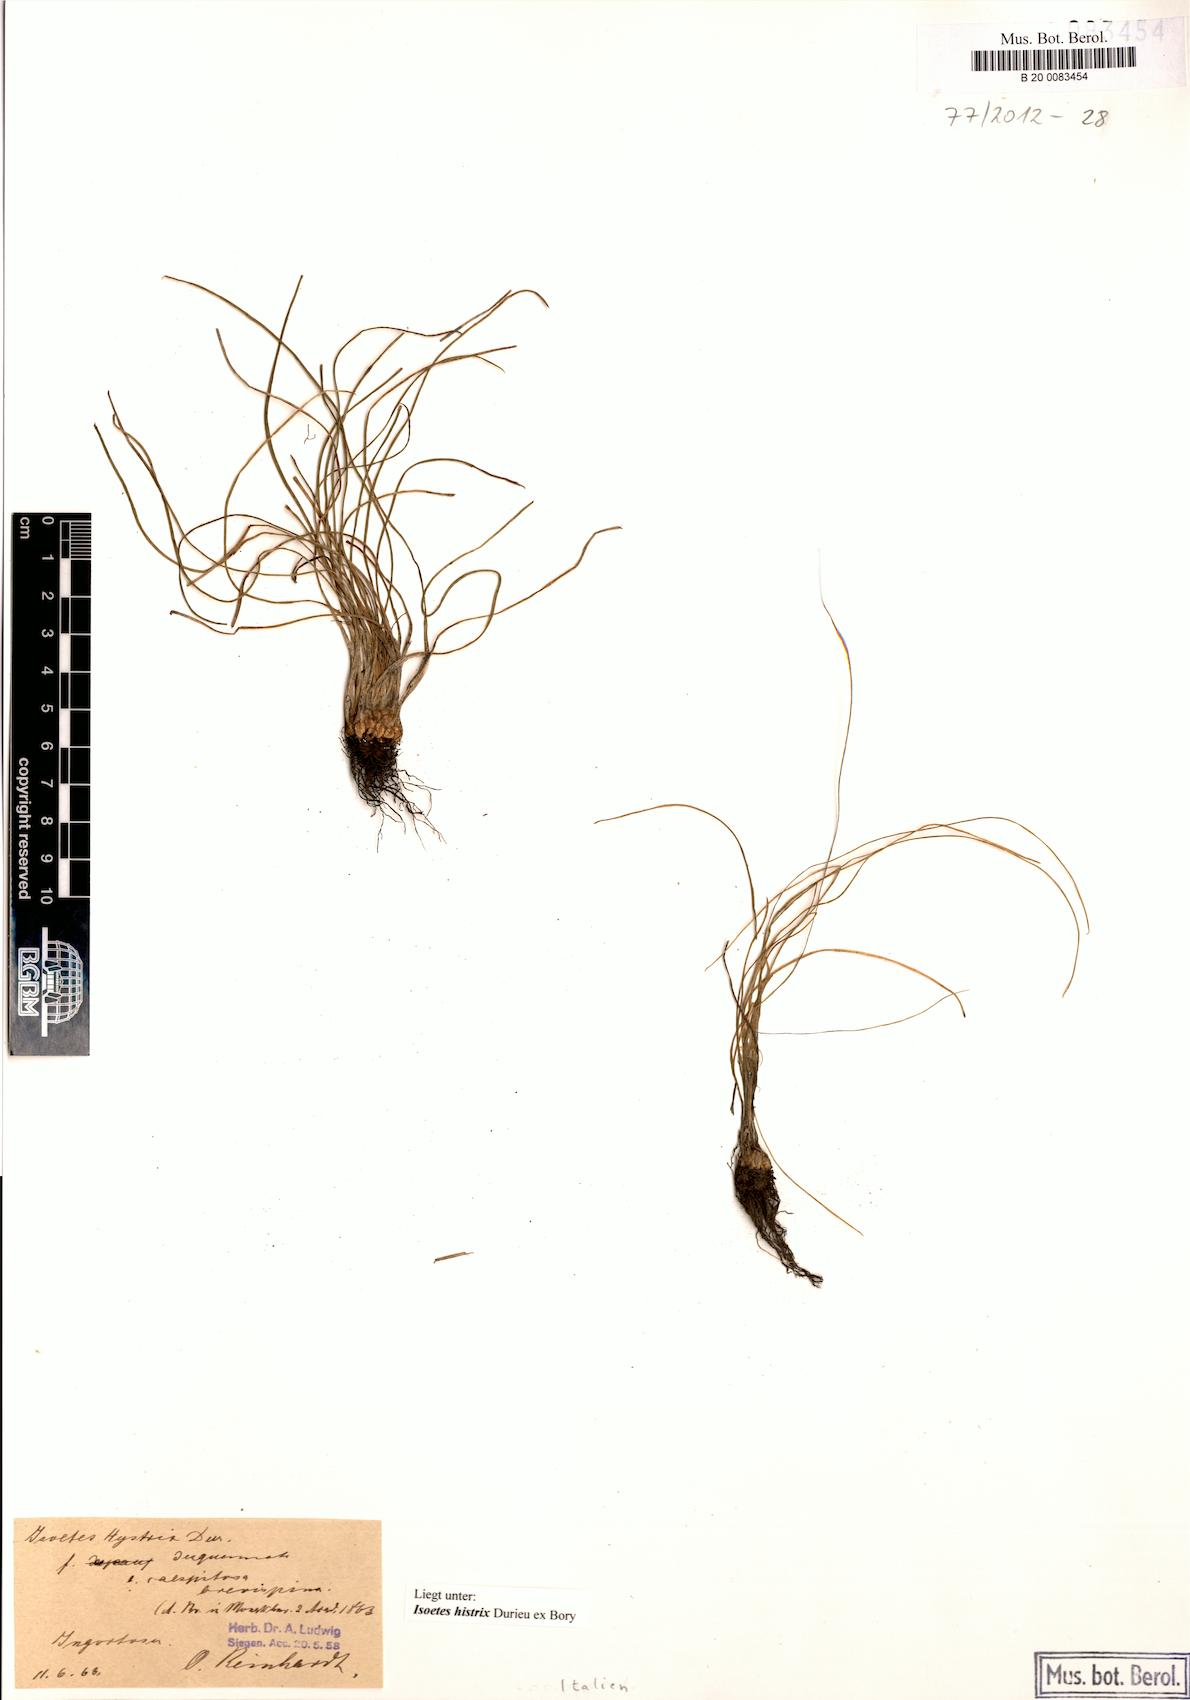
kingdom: Plantae
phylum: Tracheophyta
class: Lycopodiopsida
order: Isoetales
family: Isoetaceae
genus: Isoetes
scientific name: Isoetes gymnocarpa
